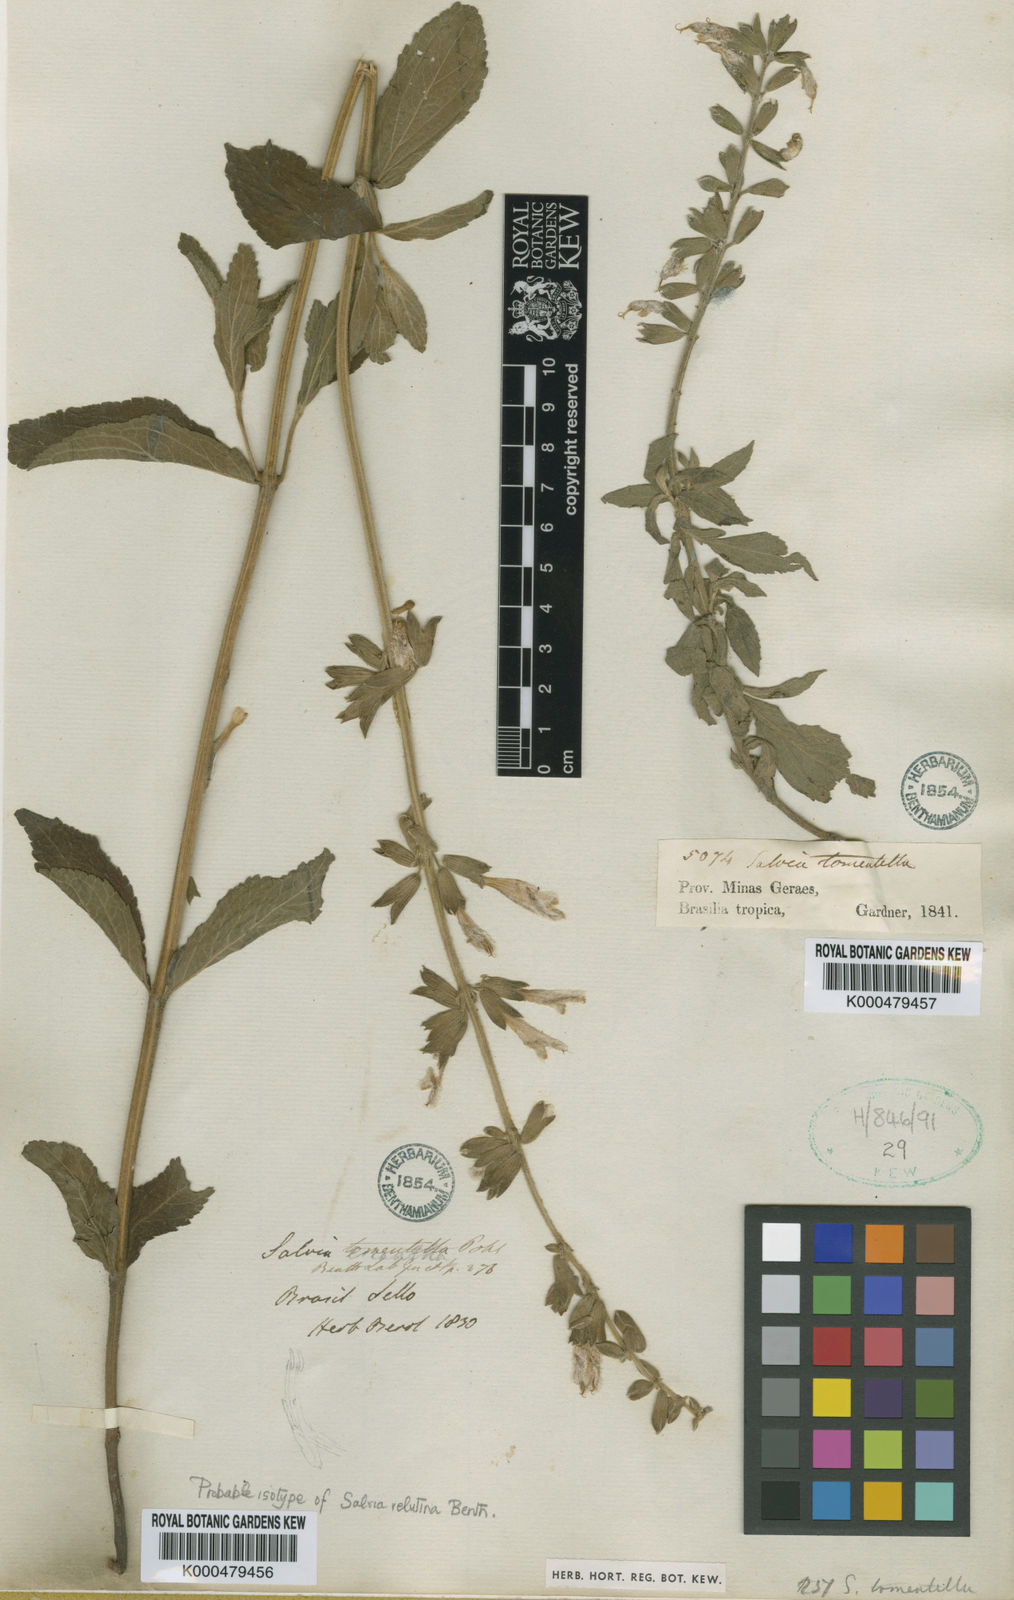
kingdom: Plantae
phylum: Tracheophyta
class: Magnoliopsida
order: Lamiales
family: Lamiaceae
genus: Salvia
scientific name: Salvia tomentella
